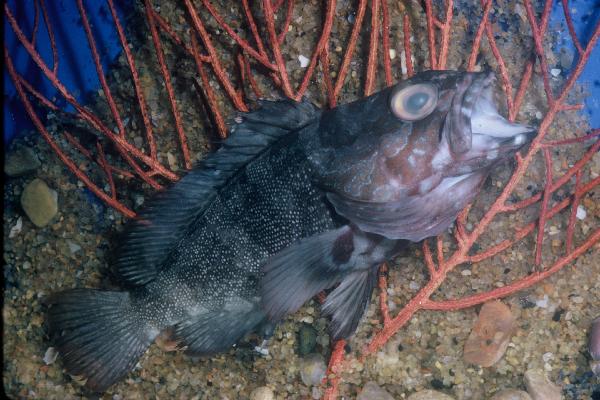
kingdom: Animalia
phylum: Chordata
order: Perciformes
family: Serranidae
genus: Epinephelus
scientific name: Epinephelus rivulatus
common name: Halfmoon grouper
